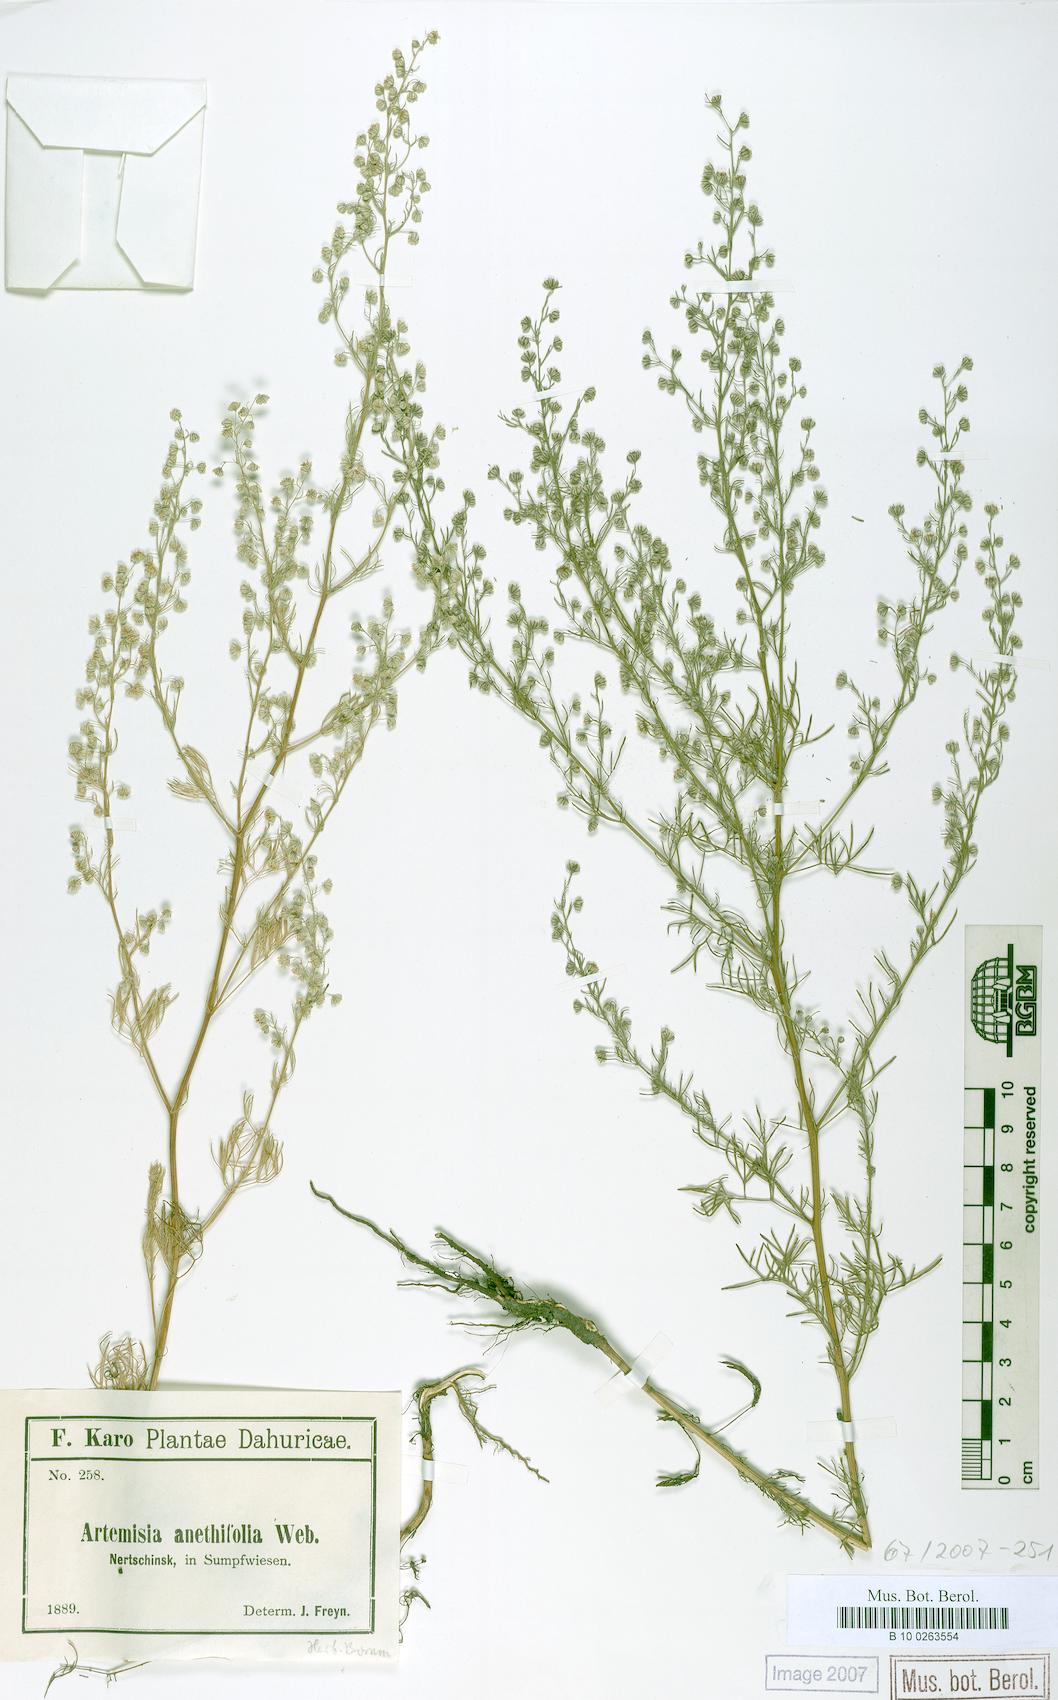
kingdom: Plantae
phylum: Tracheophyta
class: Magnoliopsida
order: Asterales
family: Asteraceae
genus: Artemisia
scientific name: Artemisia anethifolia
